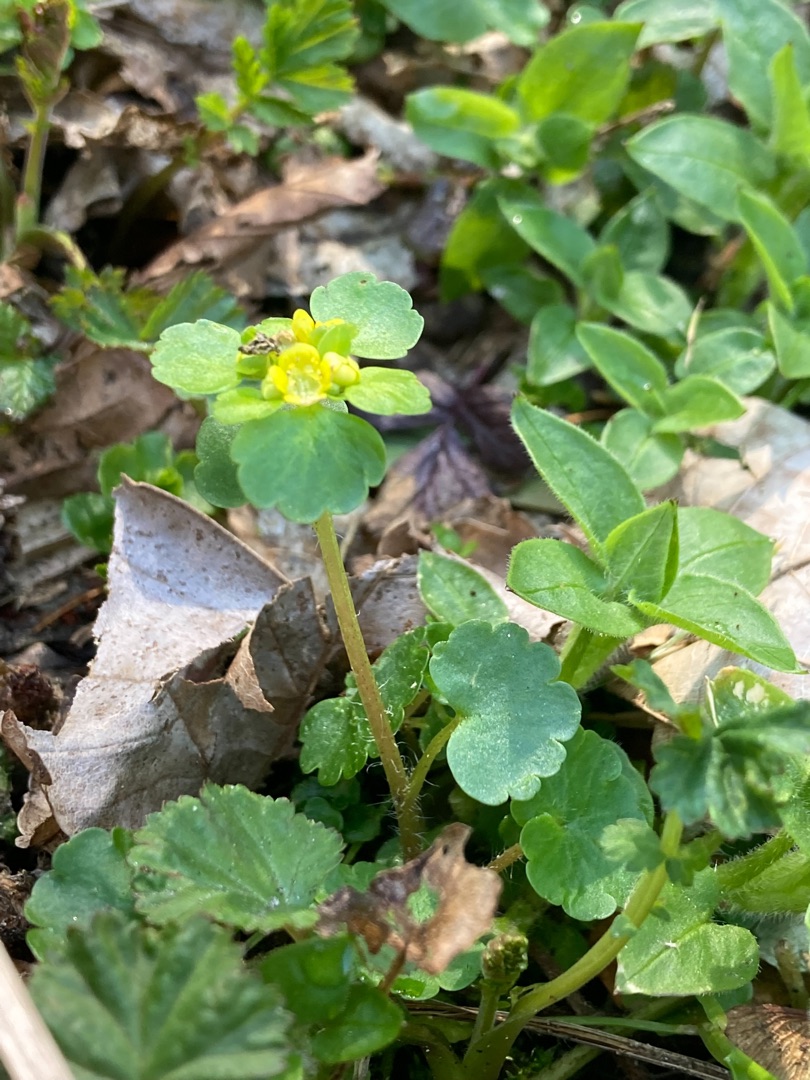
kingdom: Plantae
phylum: Tracheophyta
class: Magnoliopsida
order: Saxifragales
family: Saxifragaceae
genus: Chrysosplenium
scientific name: Chrysosplenium alternifolium
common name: Almindelig milturt
